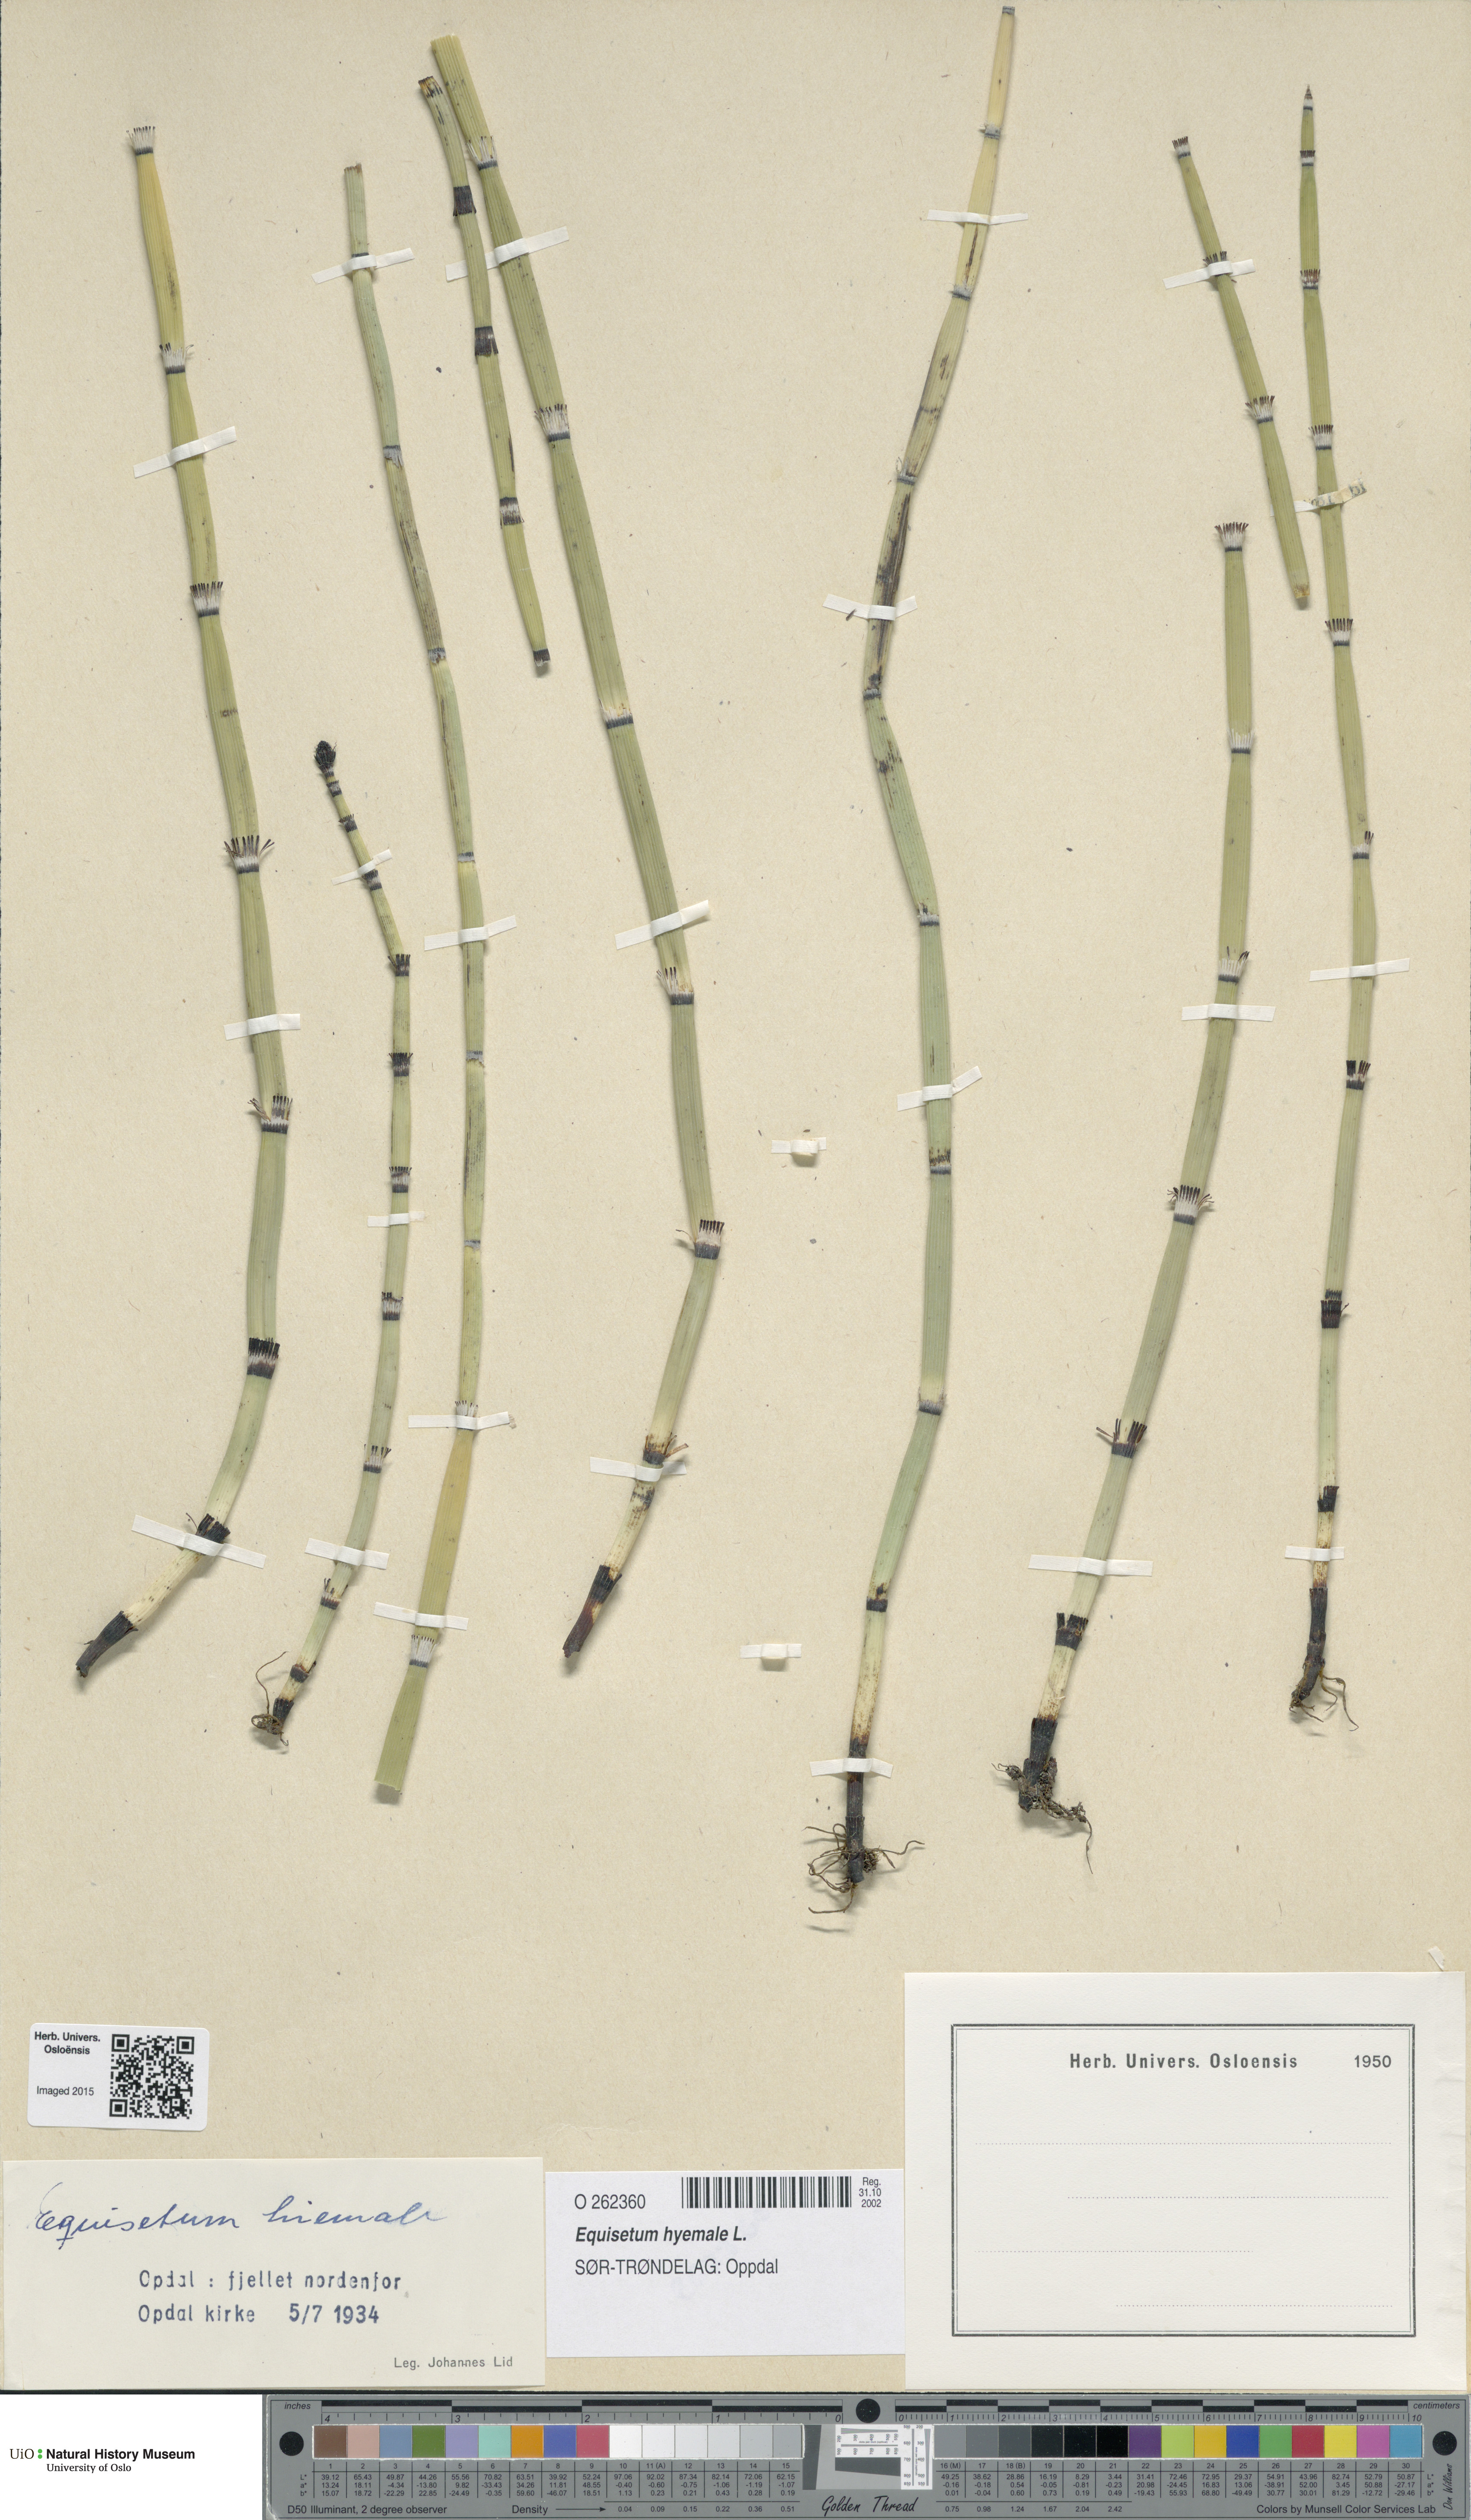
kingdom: Plantae
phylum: Tracheophyta
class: Polypodiopsida
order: Equisetales
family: Equisetaceae
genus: Equisetum
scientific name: Equisetum hyemale
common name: Rough horsetail
